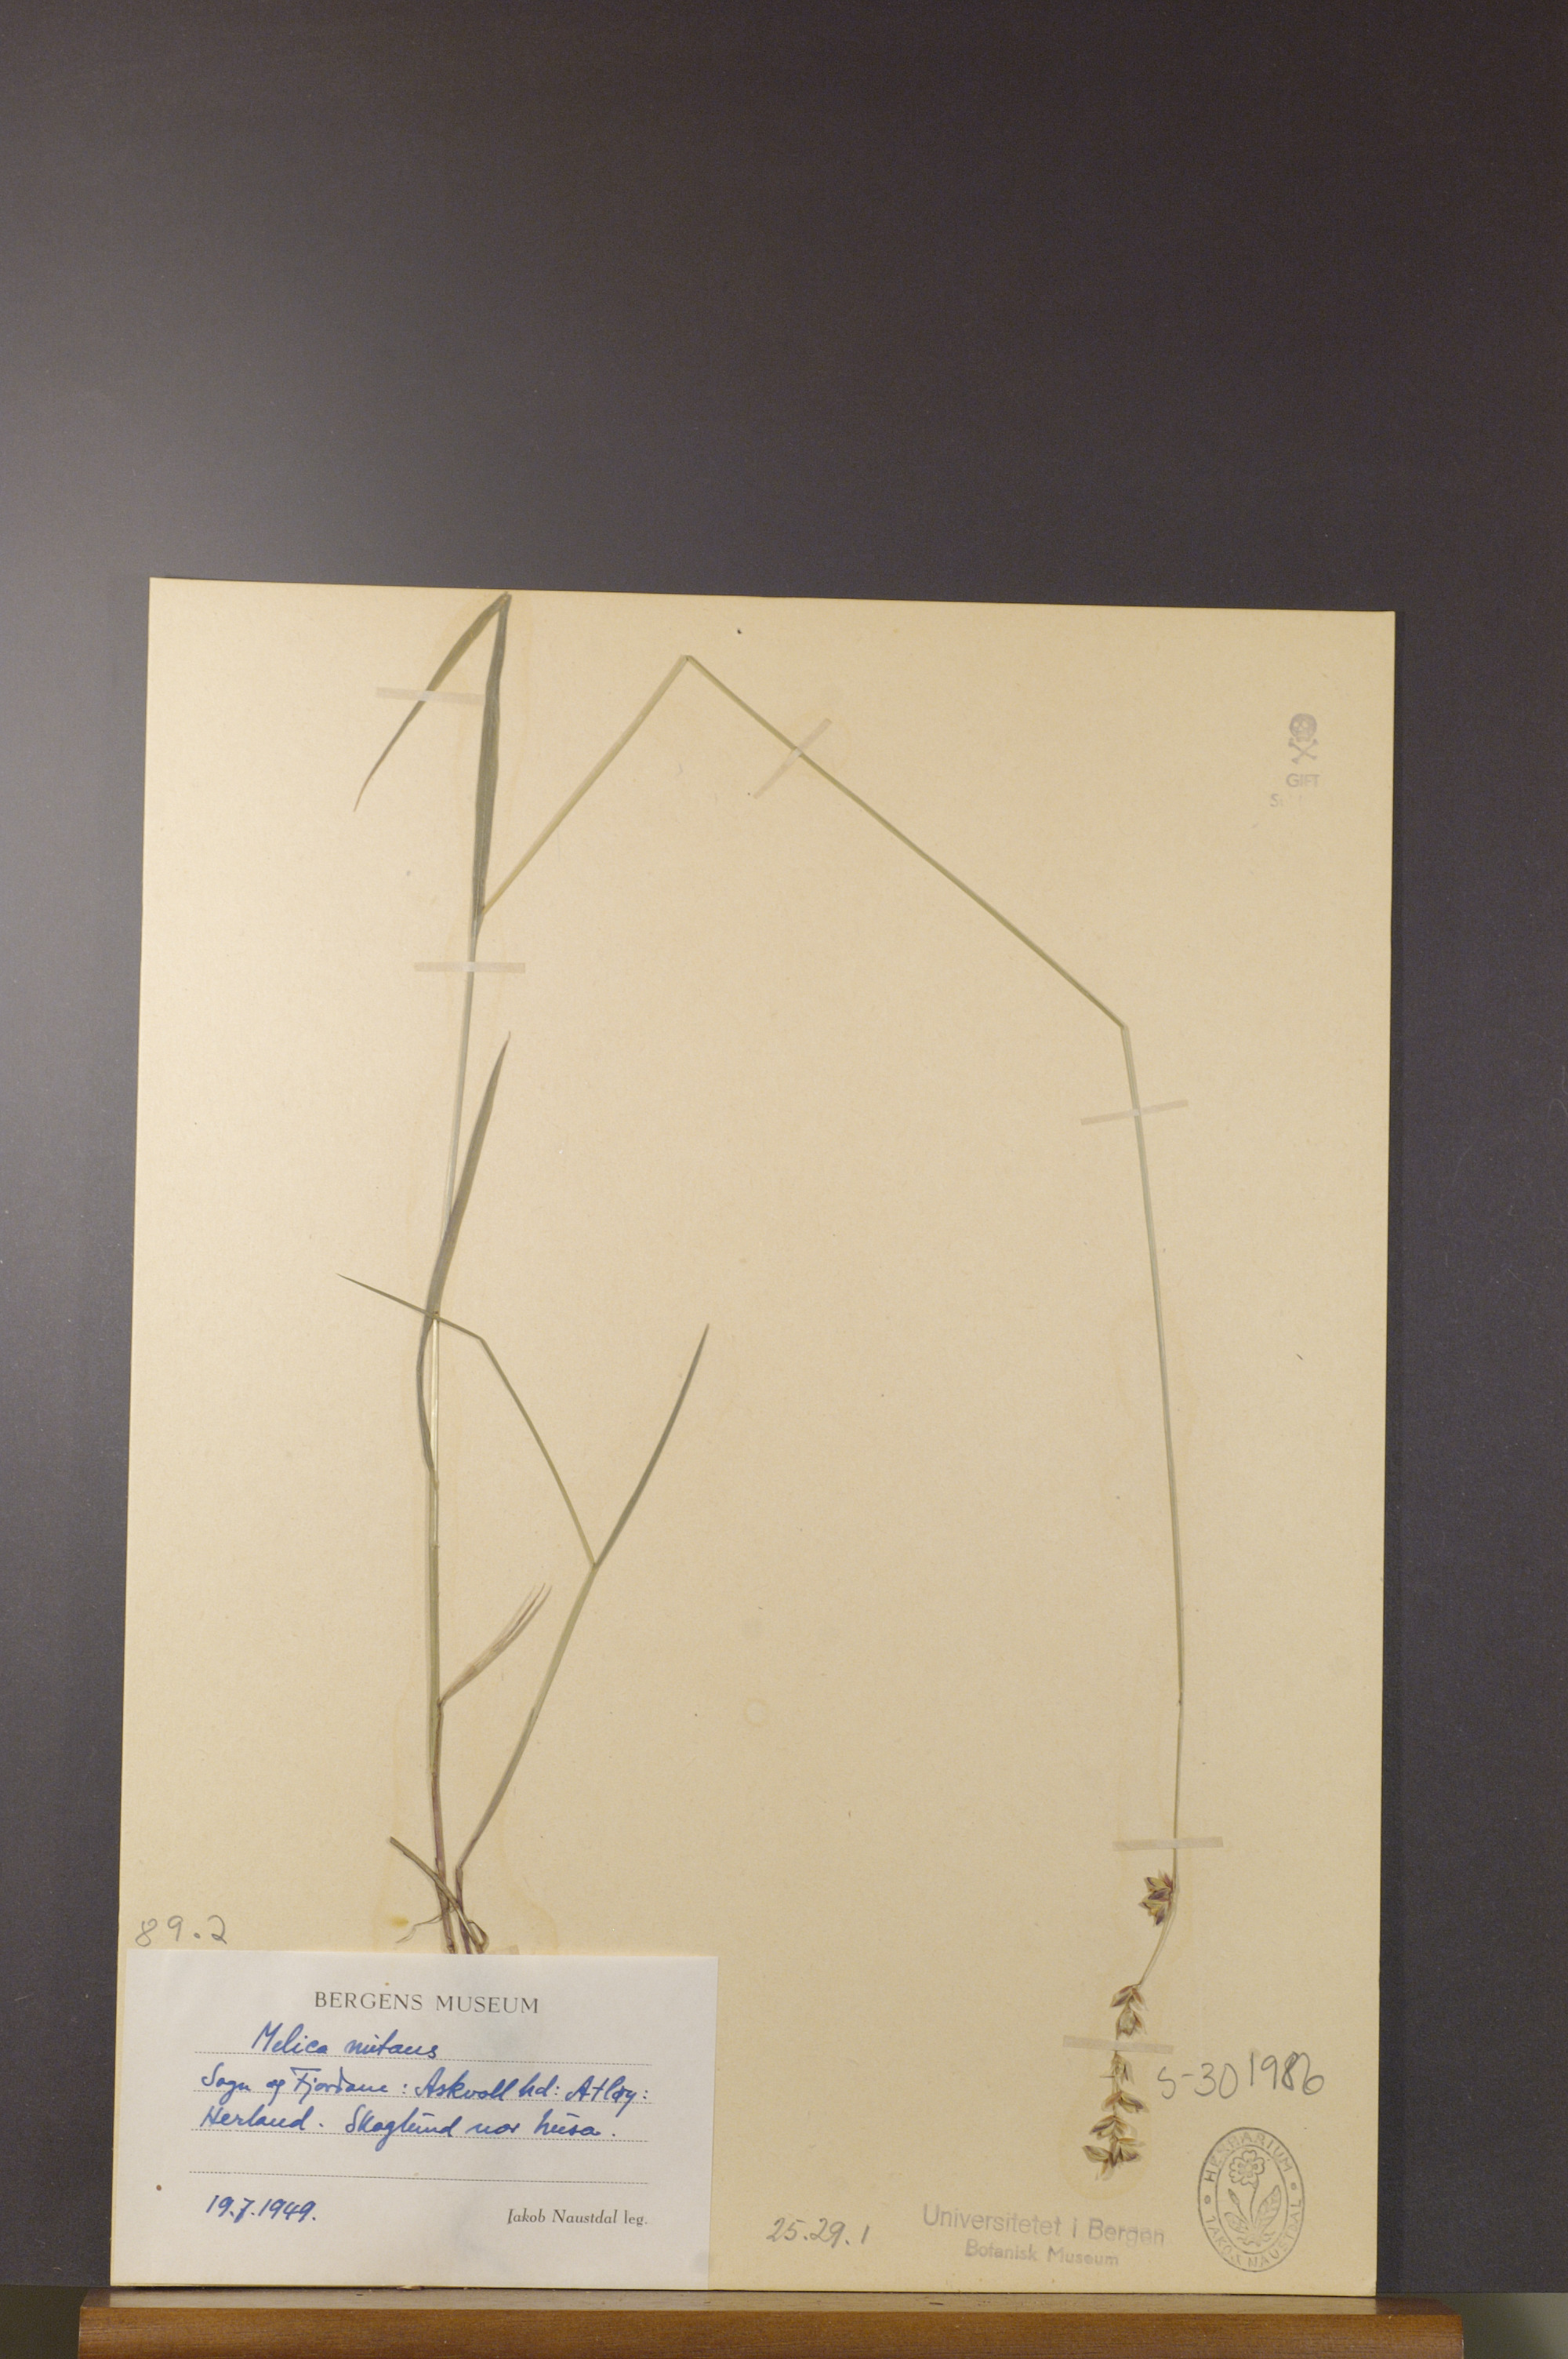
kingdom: Plantae
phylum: Tracheophyta
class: Liliopsida
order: Poales
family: Poaceae
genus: Melica
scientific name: Melica nutans
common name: Mountain melick
